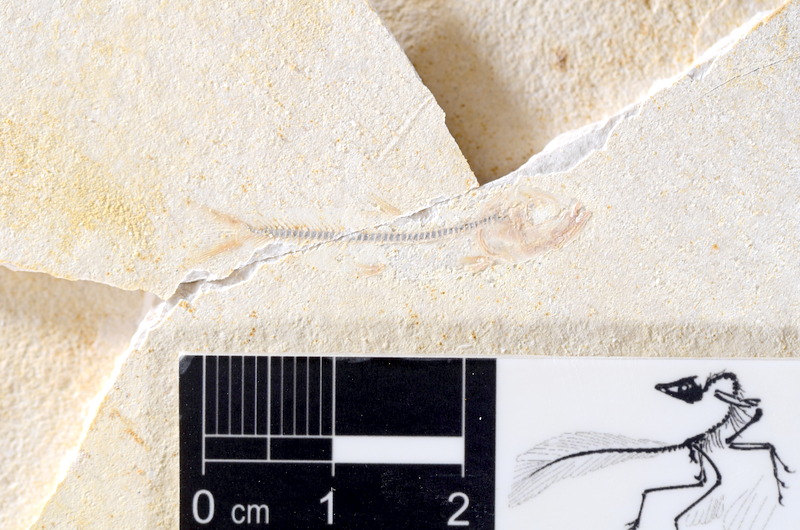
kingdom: Animalia
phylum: Chordata
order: Salmoniformes
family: Orthogonikleithridae
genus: Orthogonikleithrus
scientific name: Orthogonikleithrus hoelli
